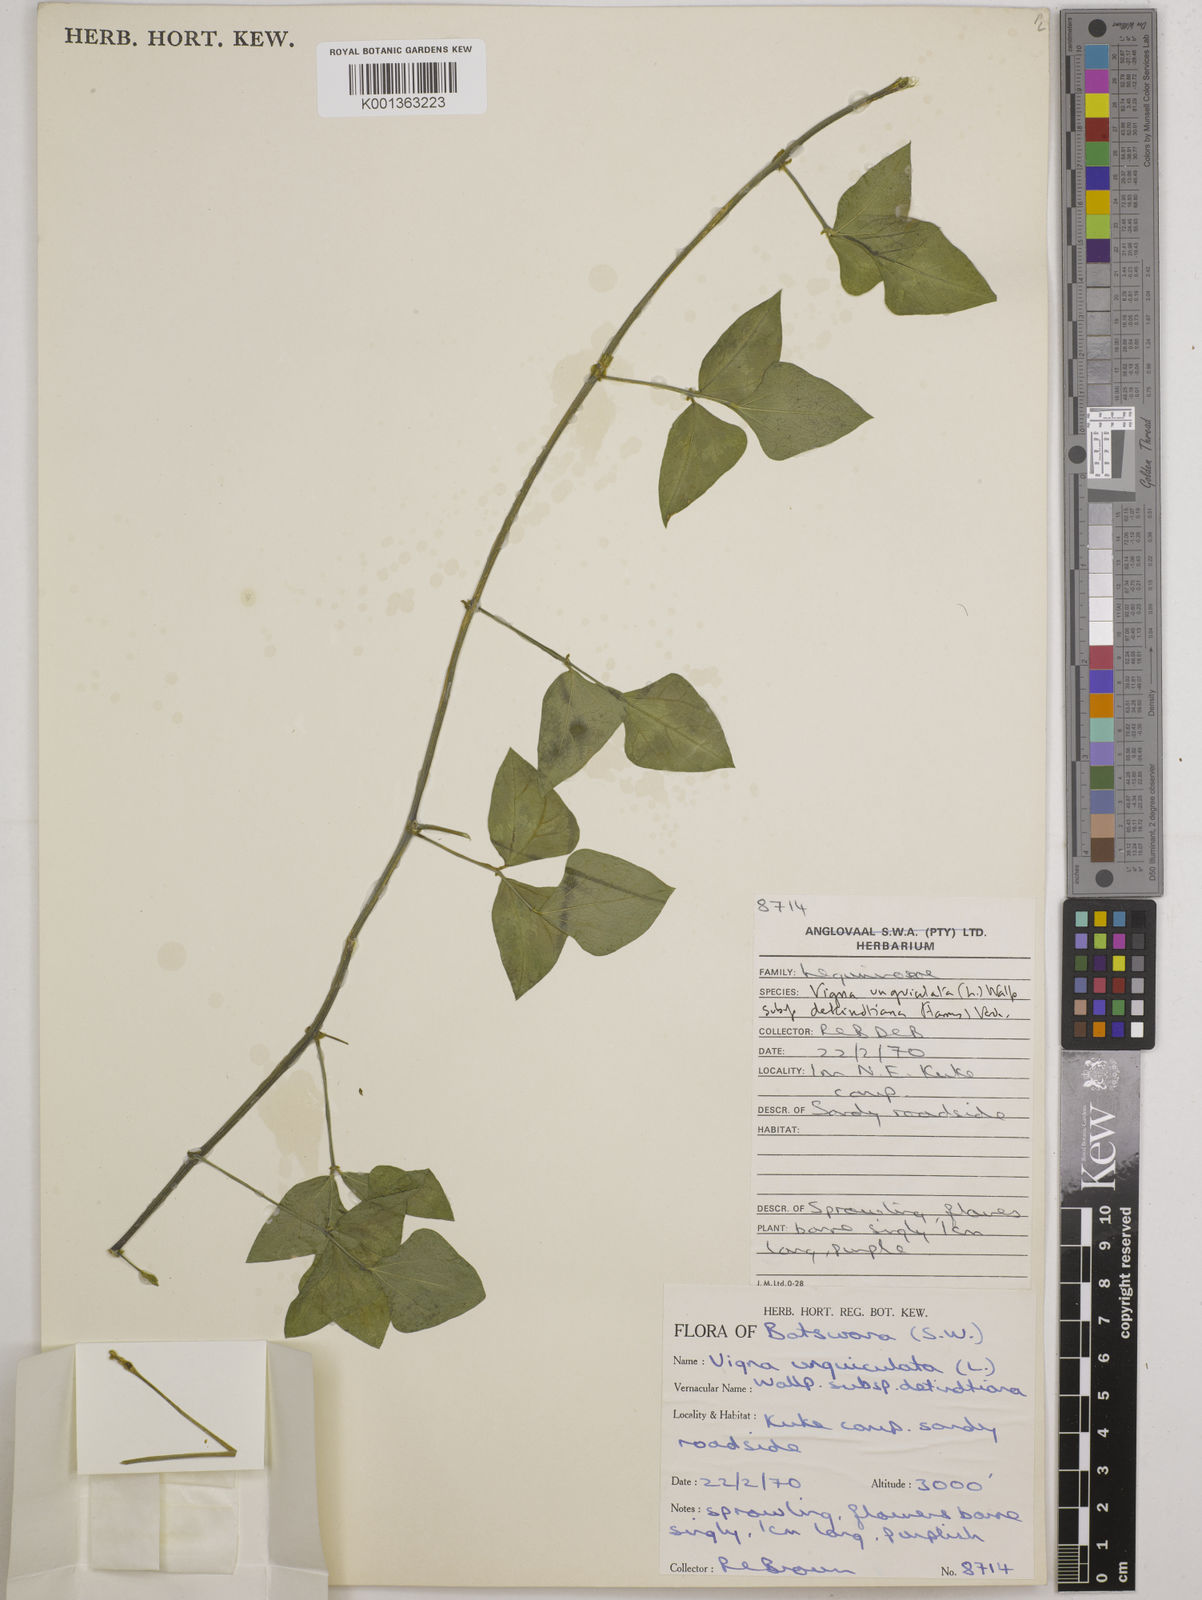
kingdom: Plantae
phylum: Tracheophyta
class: Magnoliopsida
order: Fabales
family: Fabaceae
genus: Vigna
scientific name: Vigna unguiculata
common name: Cowpea
